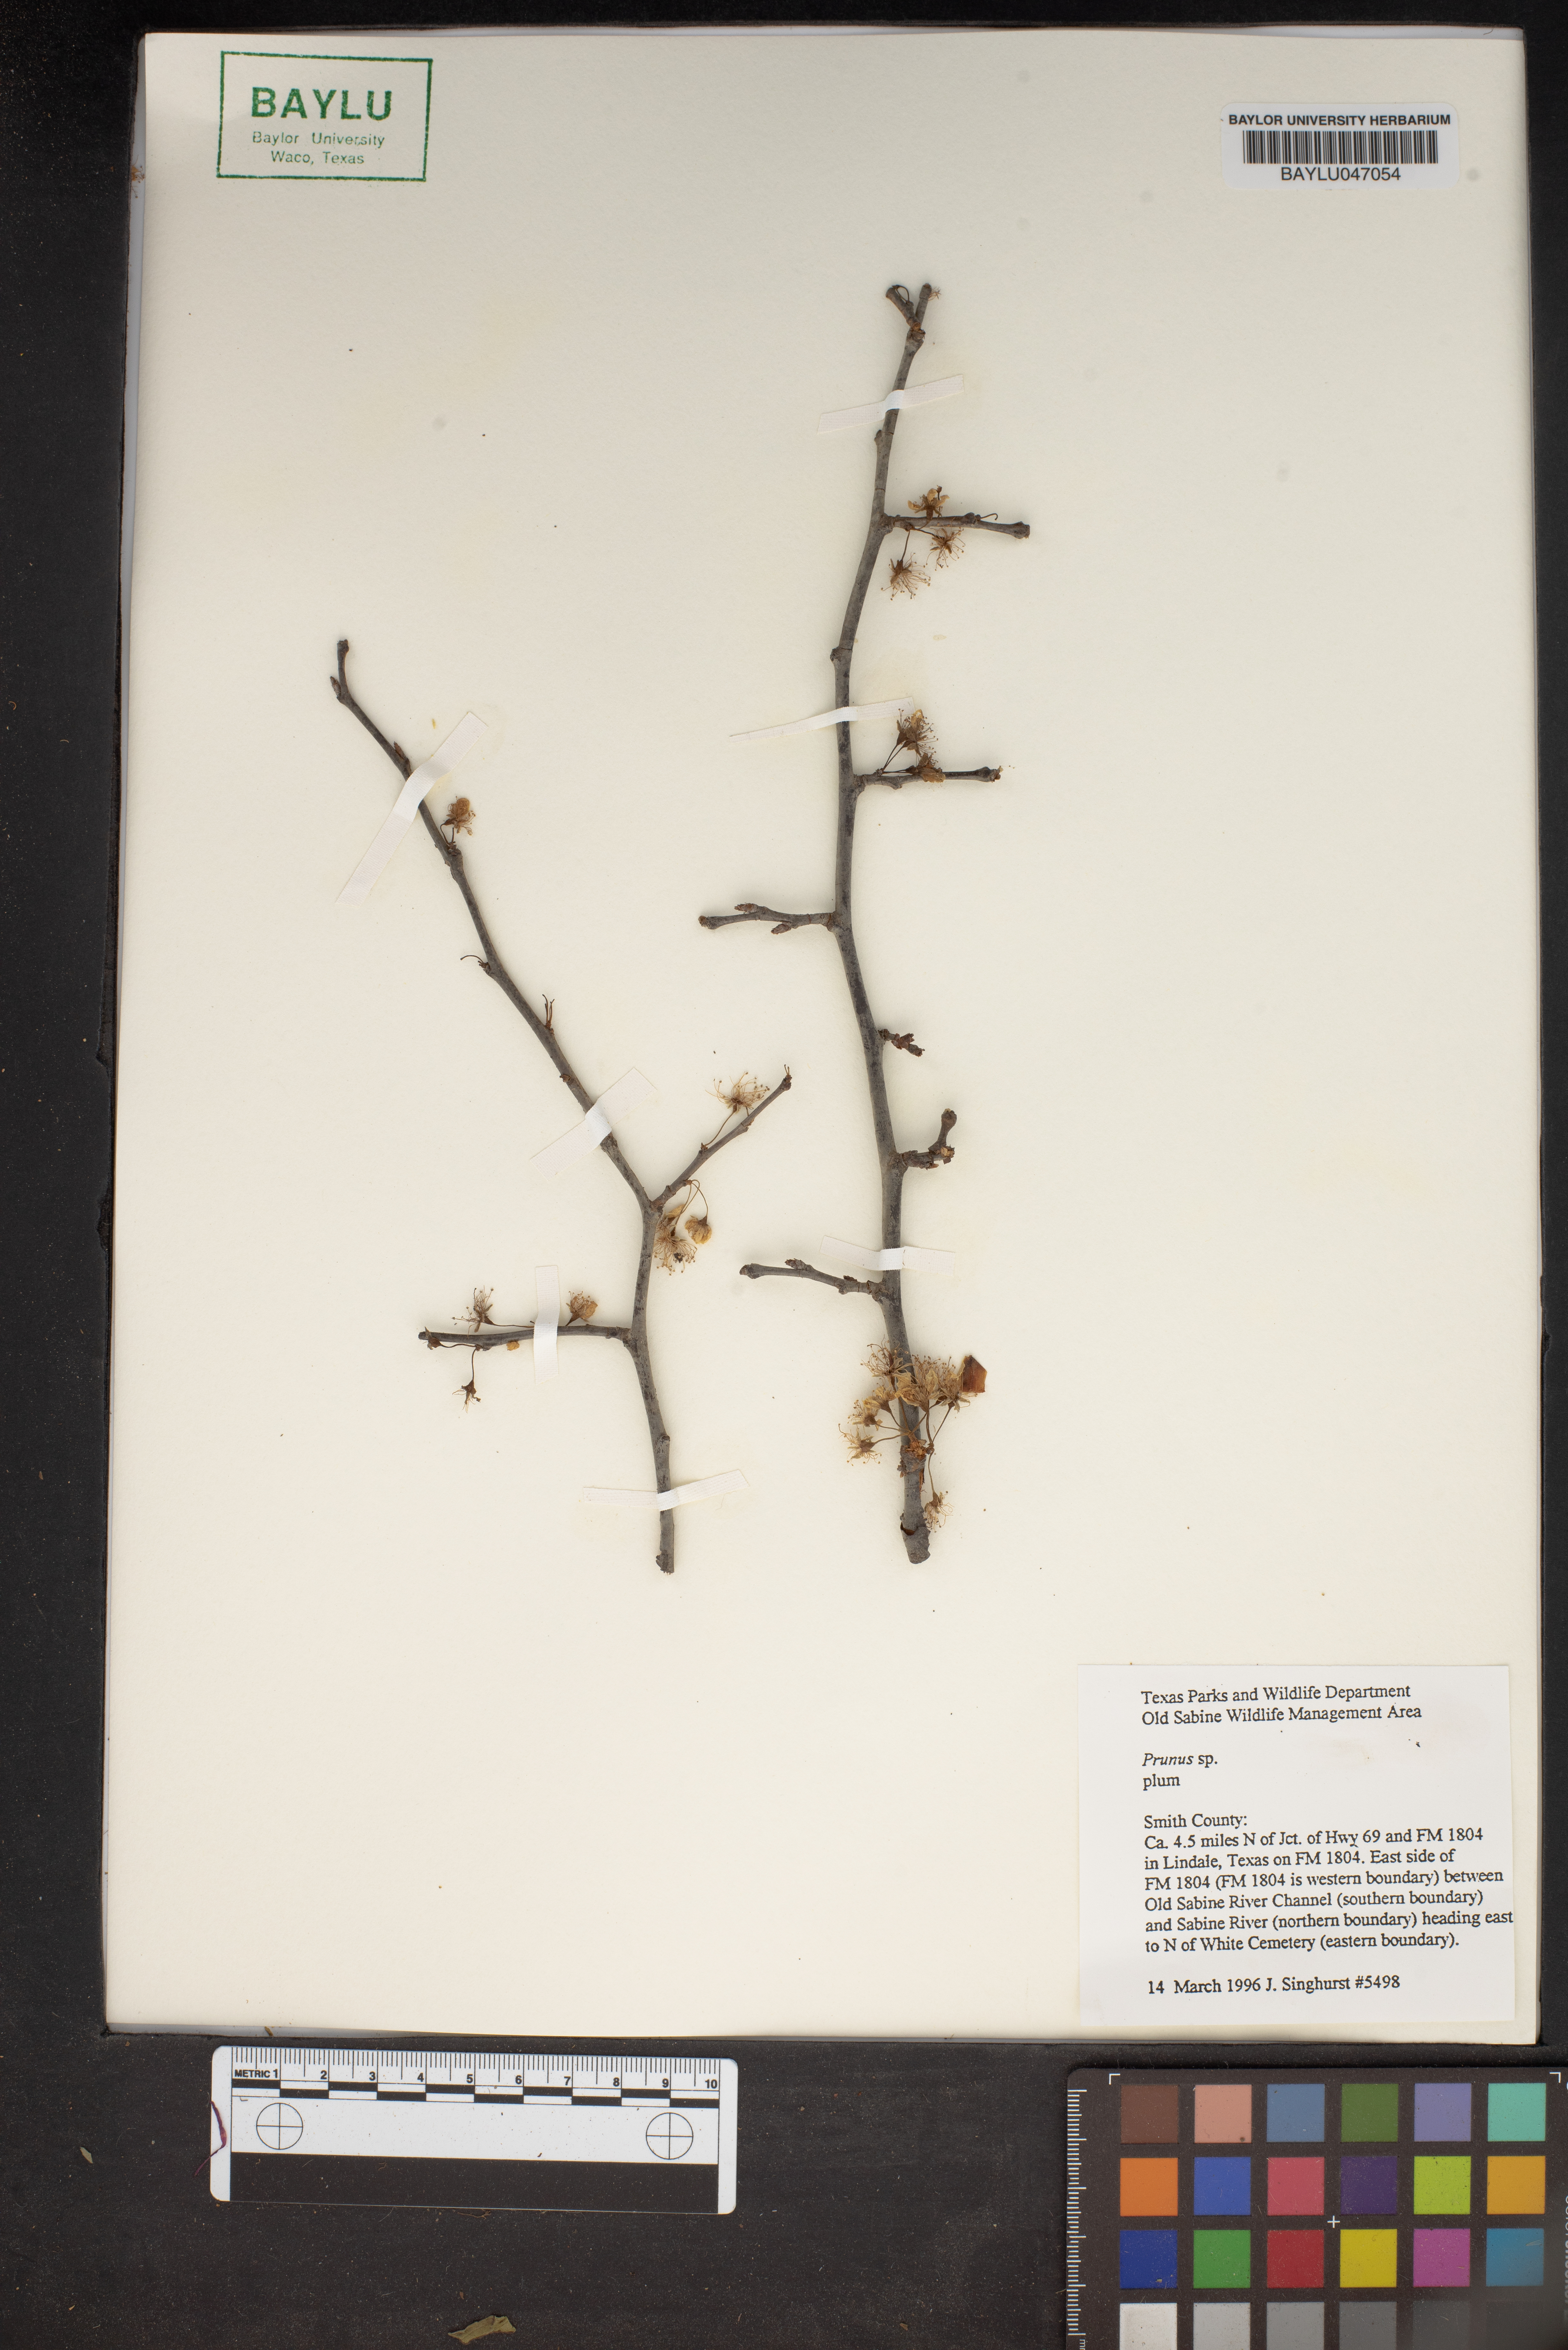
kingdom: Plantae
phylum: Tracheophyta
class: Magnoliopsida
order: Rosales
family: Rosaceae
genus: Prunus
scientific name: Prunus
